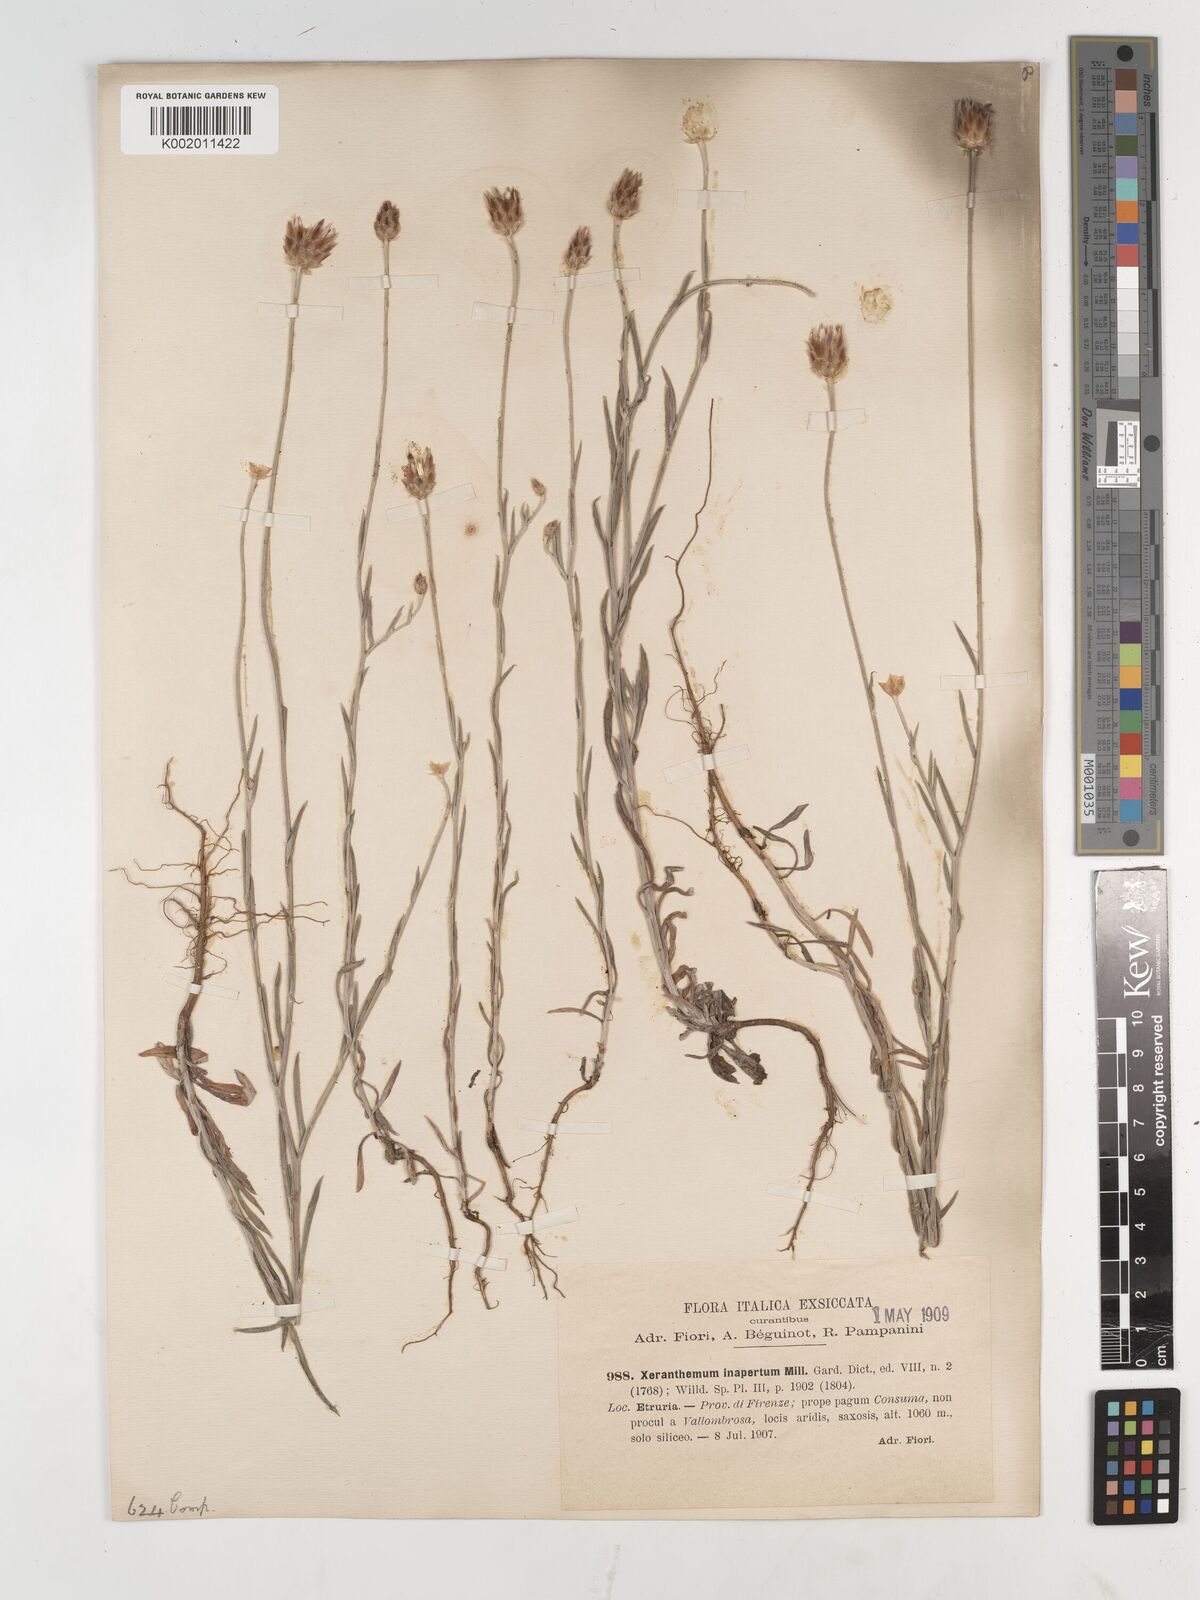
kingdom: Plantae
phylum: Tracheophyta
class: Magnoliopsida
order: Asterales
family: Asteraceae
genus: Xeranthemum
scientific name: Xeranthemum inapertum
